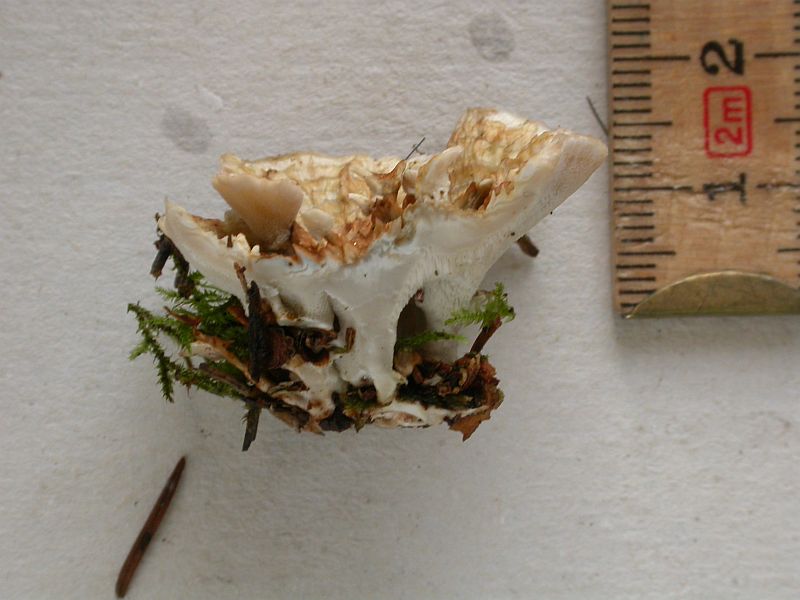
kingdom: Fungi
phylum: Basidiomycota
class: Agaricomycetes
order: Polyporales
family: Dacryobolaceae
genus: Oligoporus
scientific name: Oligoporus wakefieldiae
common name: række-kødporesvamp
